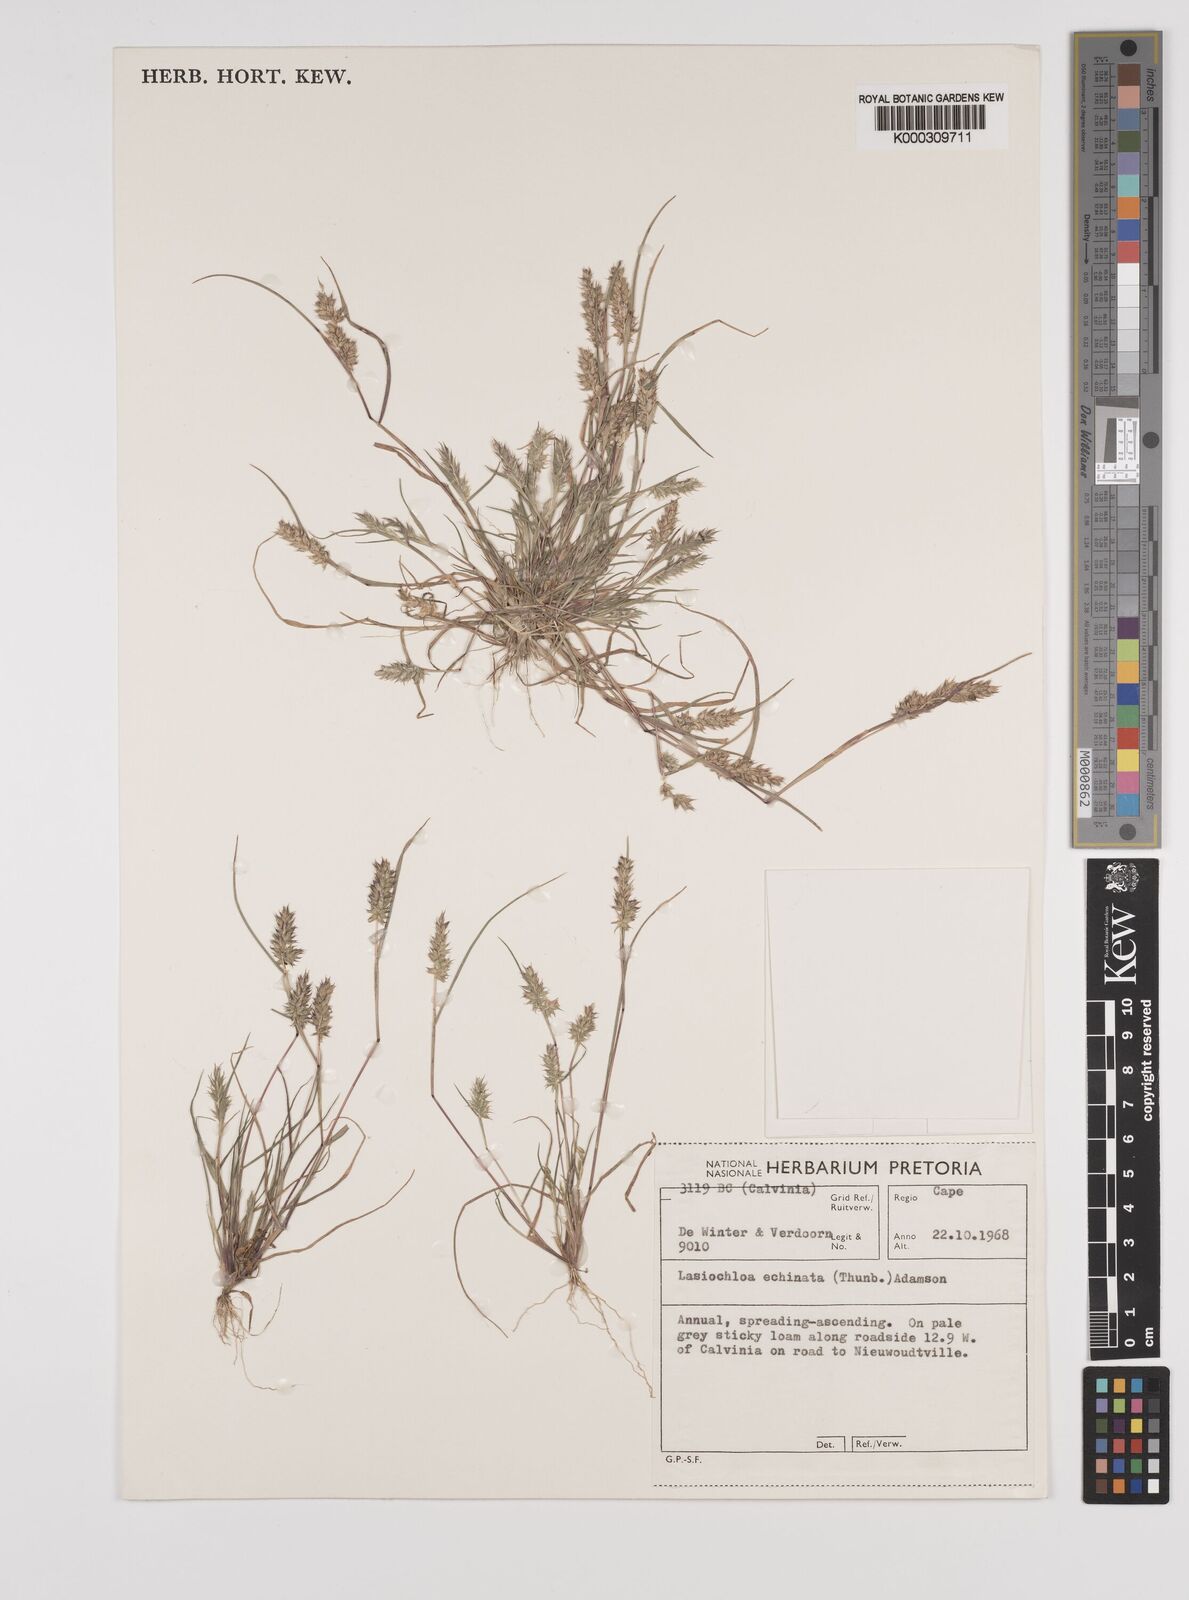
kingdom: Plantae
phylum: Tracheophyta
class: Liliopsida
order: Poales
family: Poaceae
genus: Tribolium
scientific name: Tribolium echinatum
